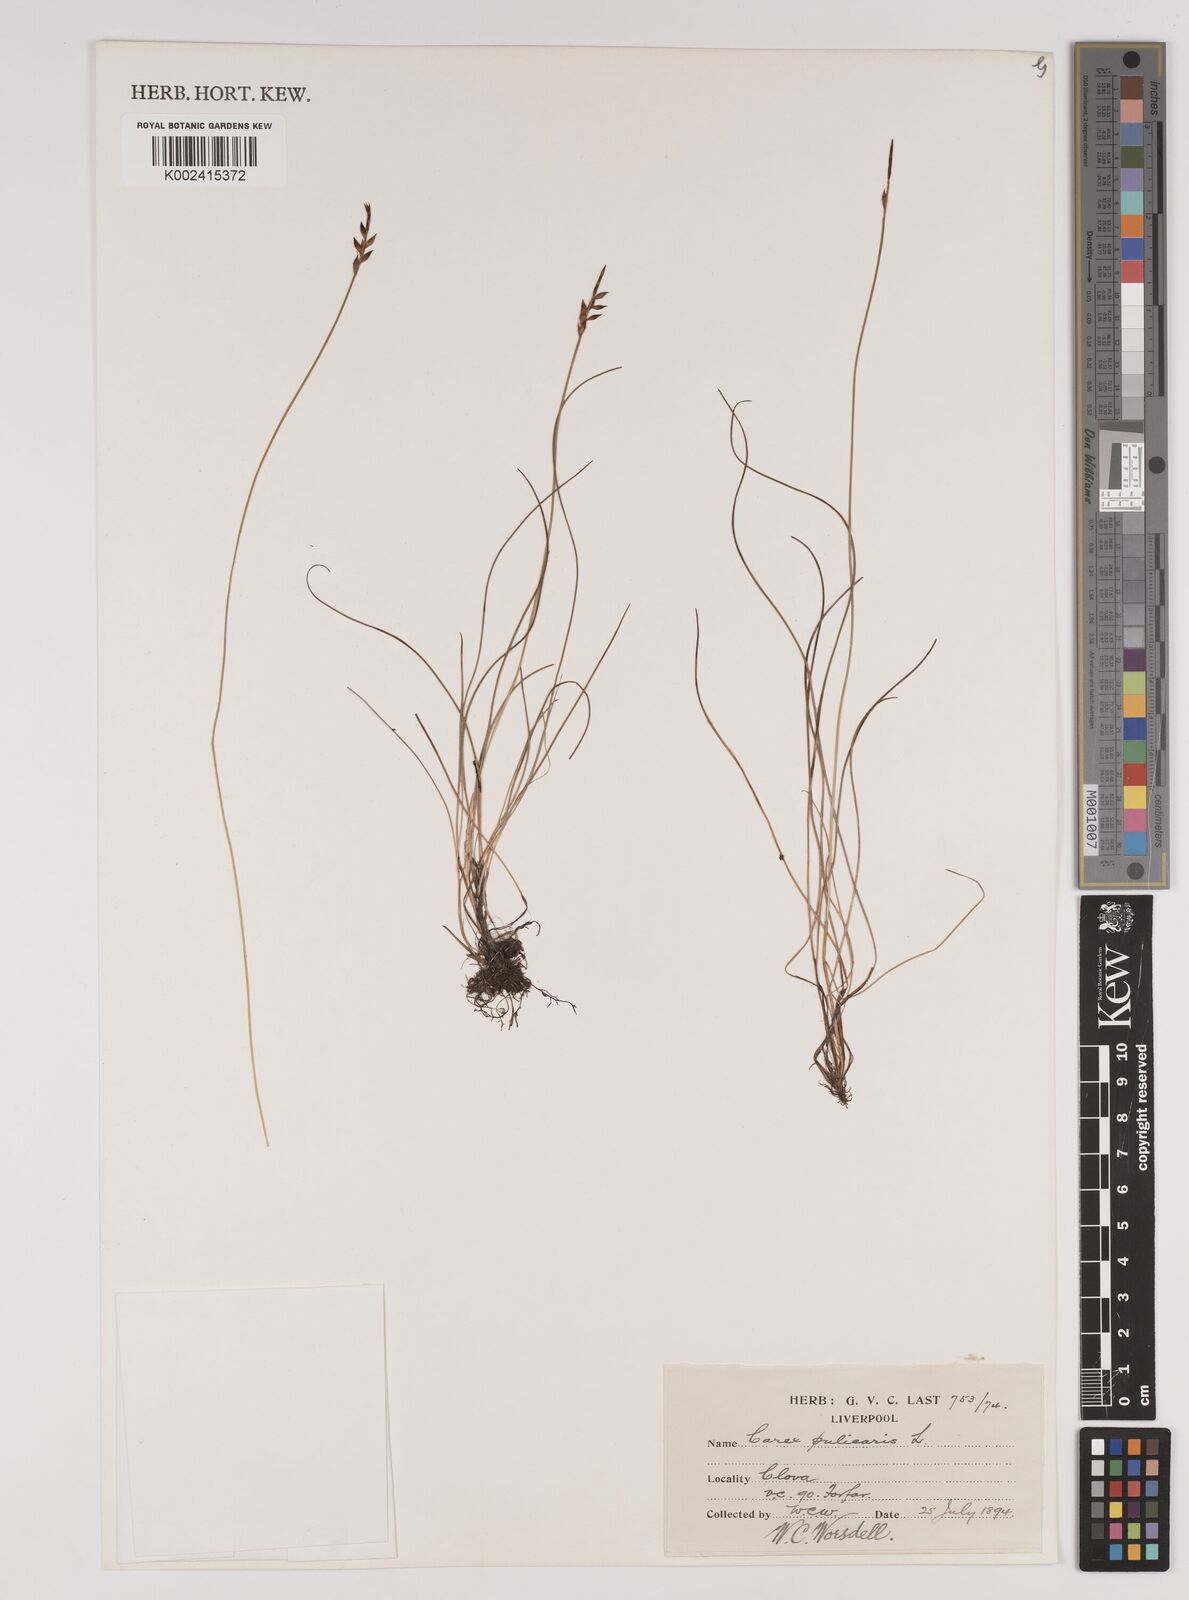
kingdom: Plantae
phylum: Tracheophyta
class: Liliopsida
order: Poales
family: Cyperaceae
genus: Carex
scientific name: Carex pulicaris
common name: Flea sedge
